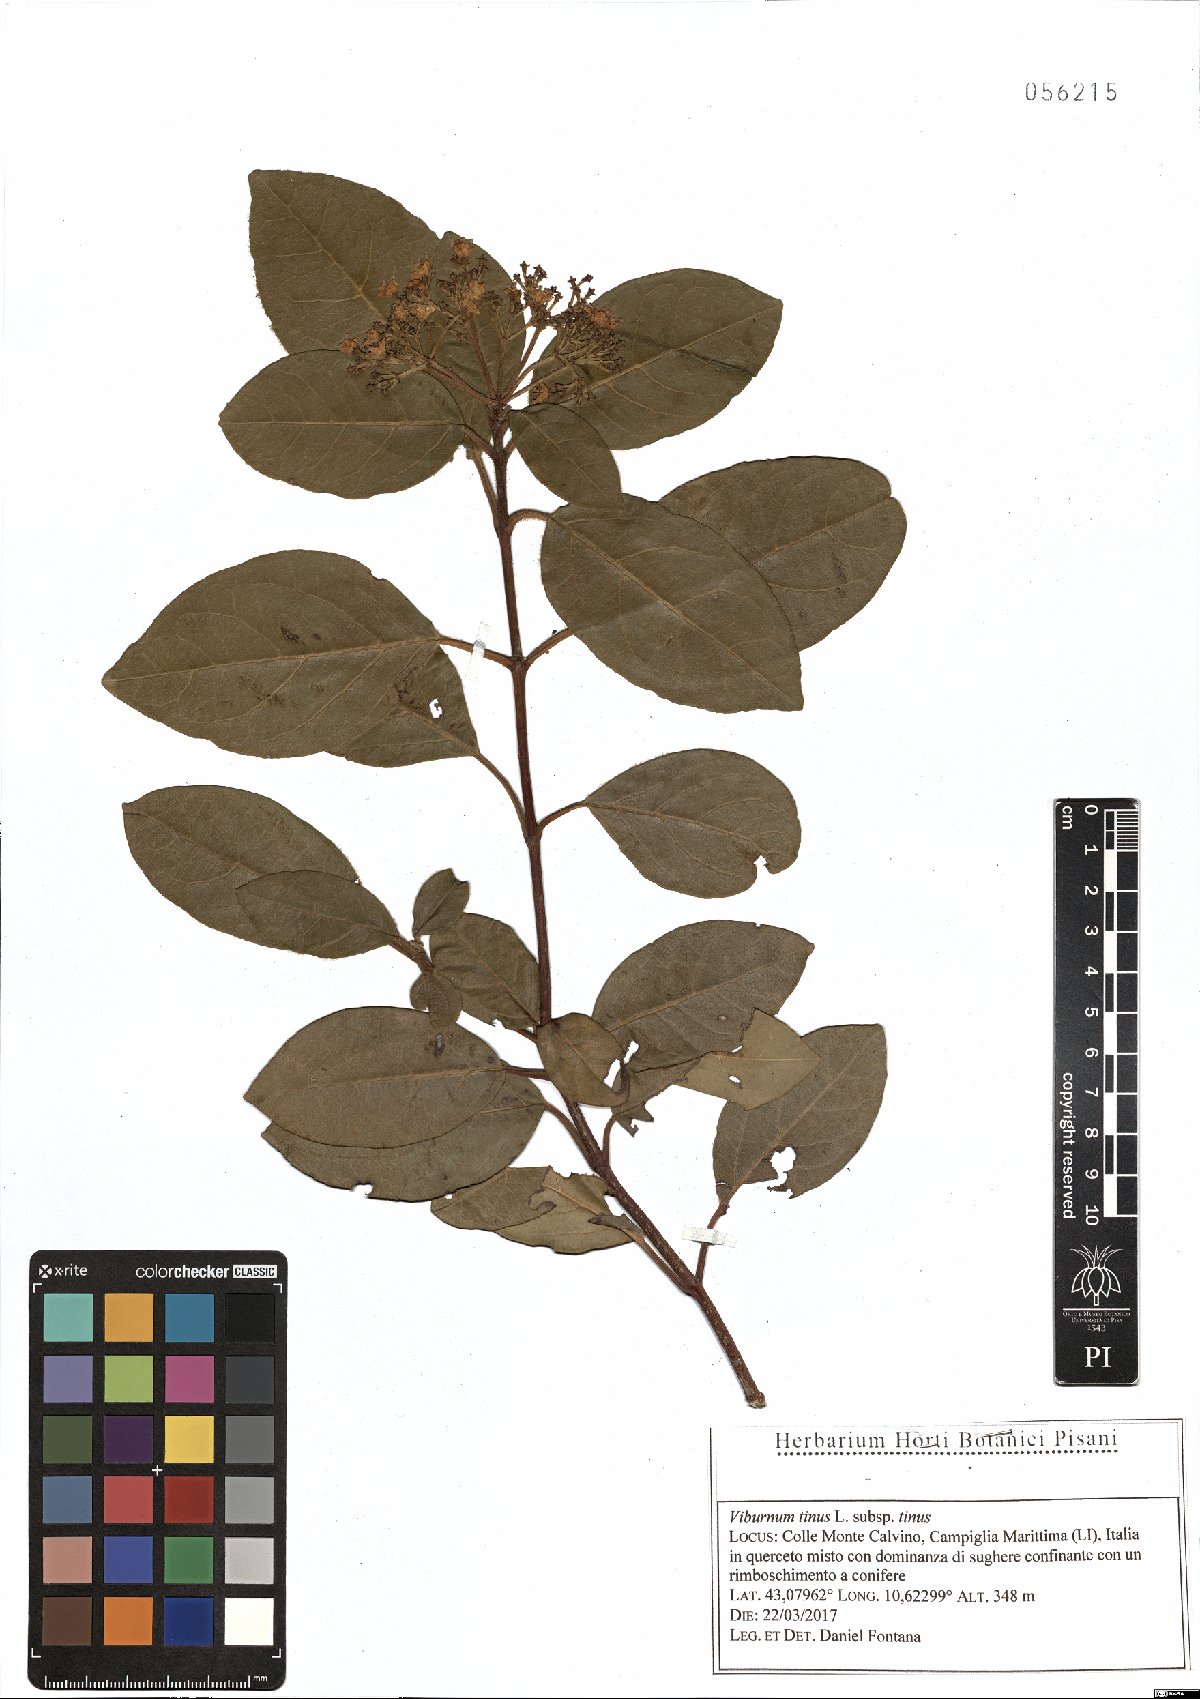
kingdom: Plantae
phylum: Tracheophyta
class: Magnoliopsida
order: Dipsacales
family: Viburnaceae
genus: Viburnum
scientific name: Viburnum tinus
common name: Laurustinus
